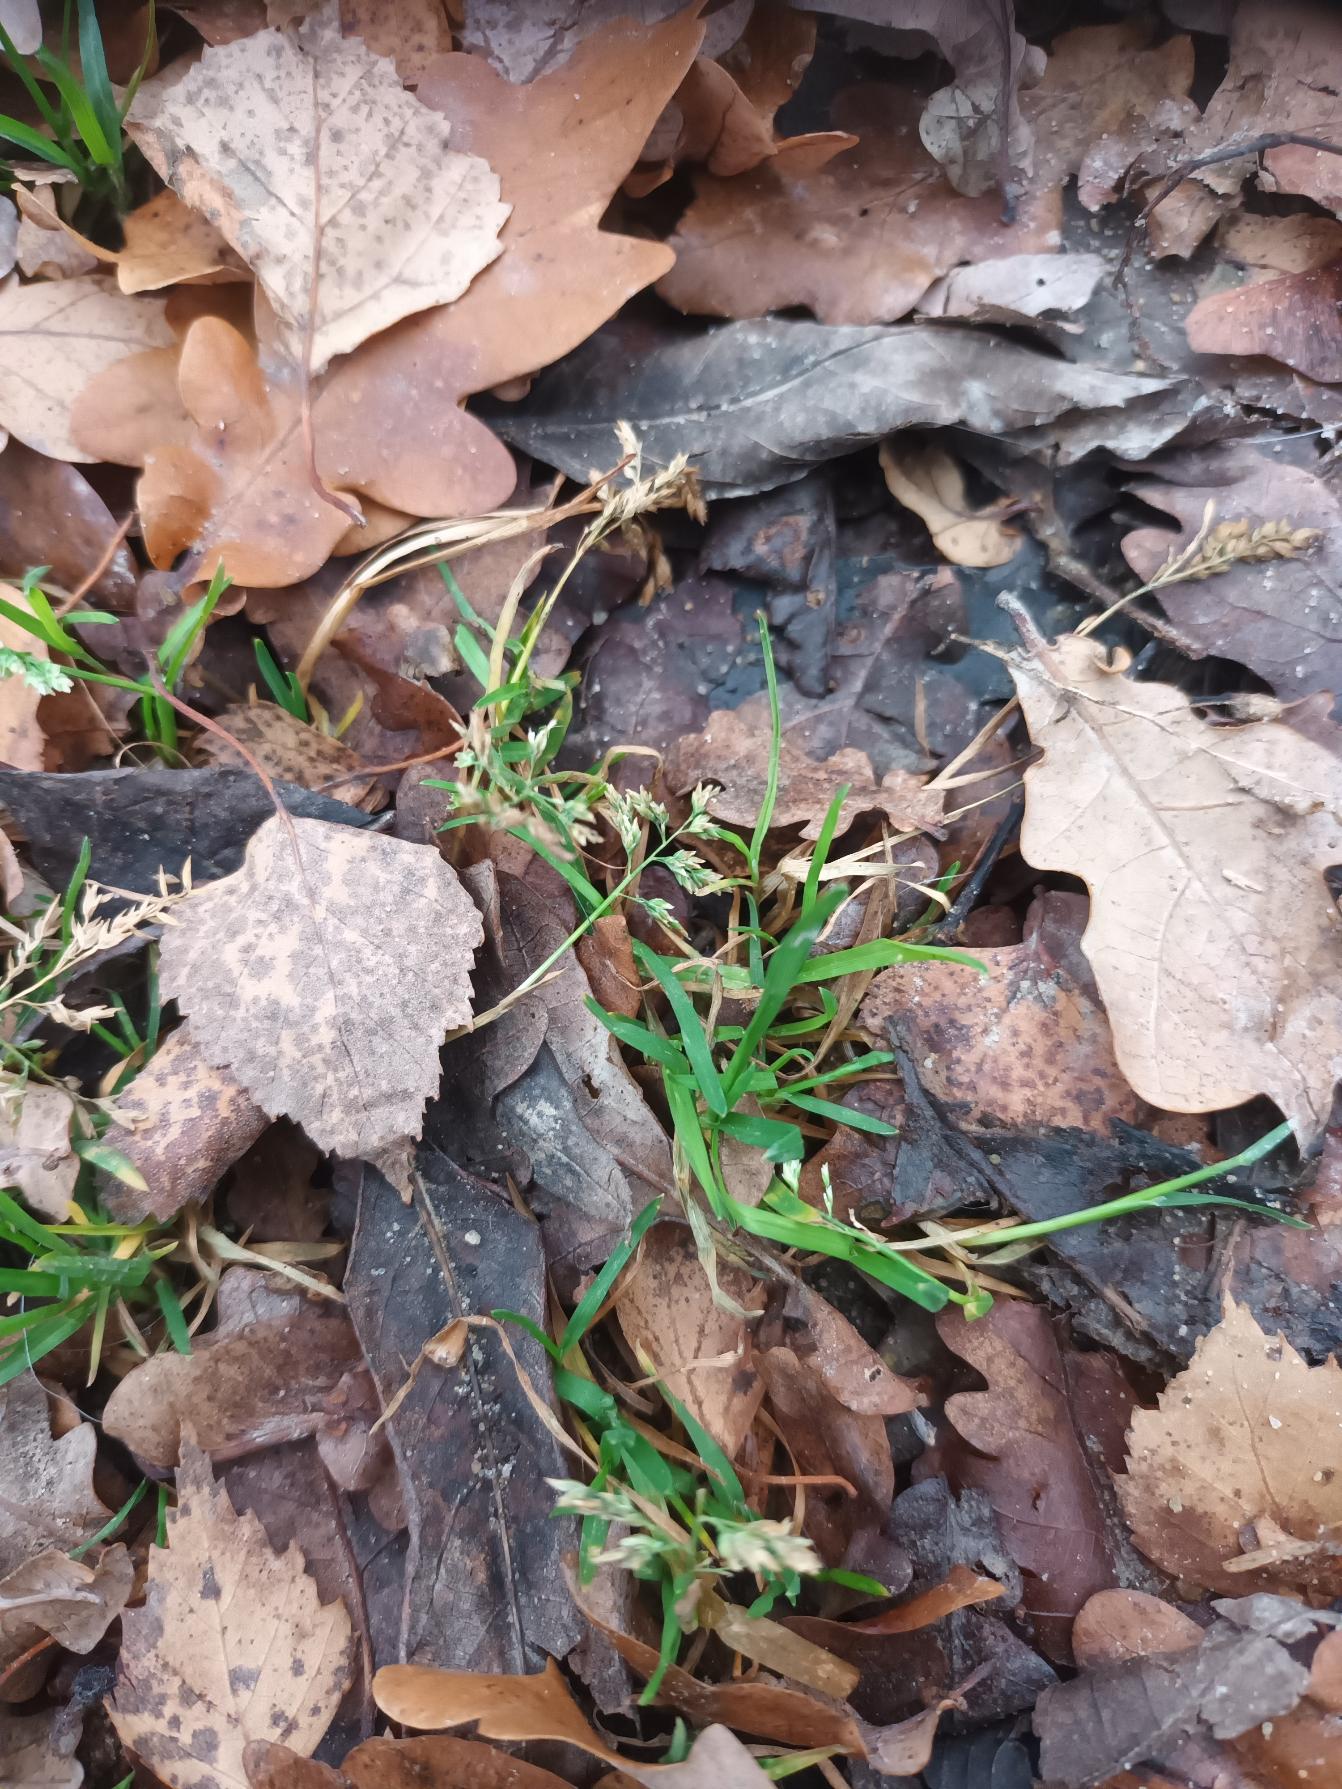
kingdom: Plantae
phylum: Tracheophyta
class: Liliopsida
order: Poales
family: Poaceae
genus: Poa
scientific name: Poa annua
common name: Enårig rapgræs
